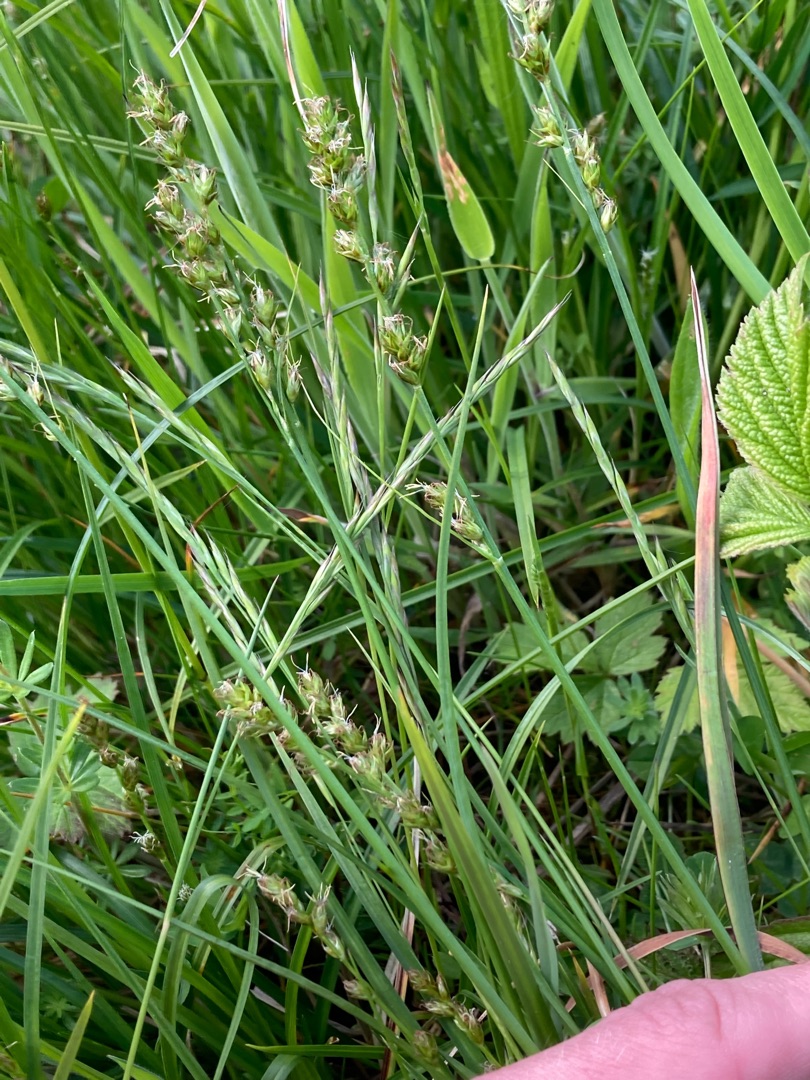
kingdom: Plantae
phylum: Tracheophyta
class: Liliopsida
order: Poales
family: Cyperaceae
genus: Carex
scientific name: Carex divulsa
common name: Mellembrudt star
